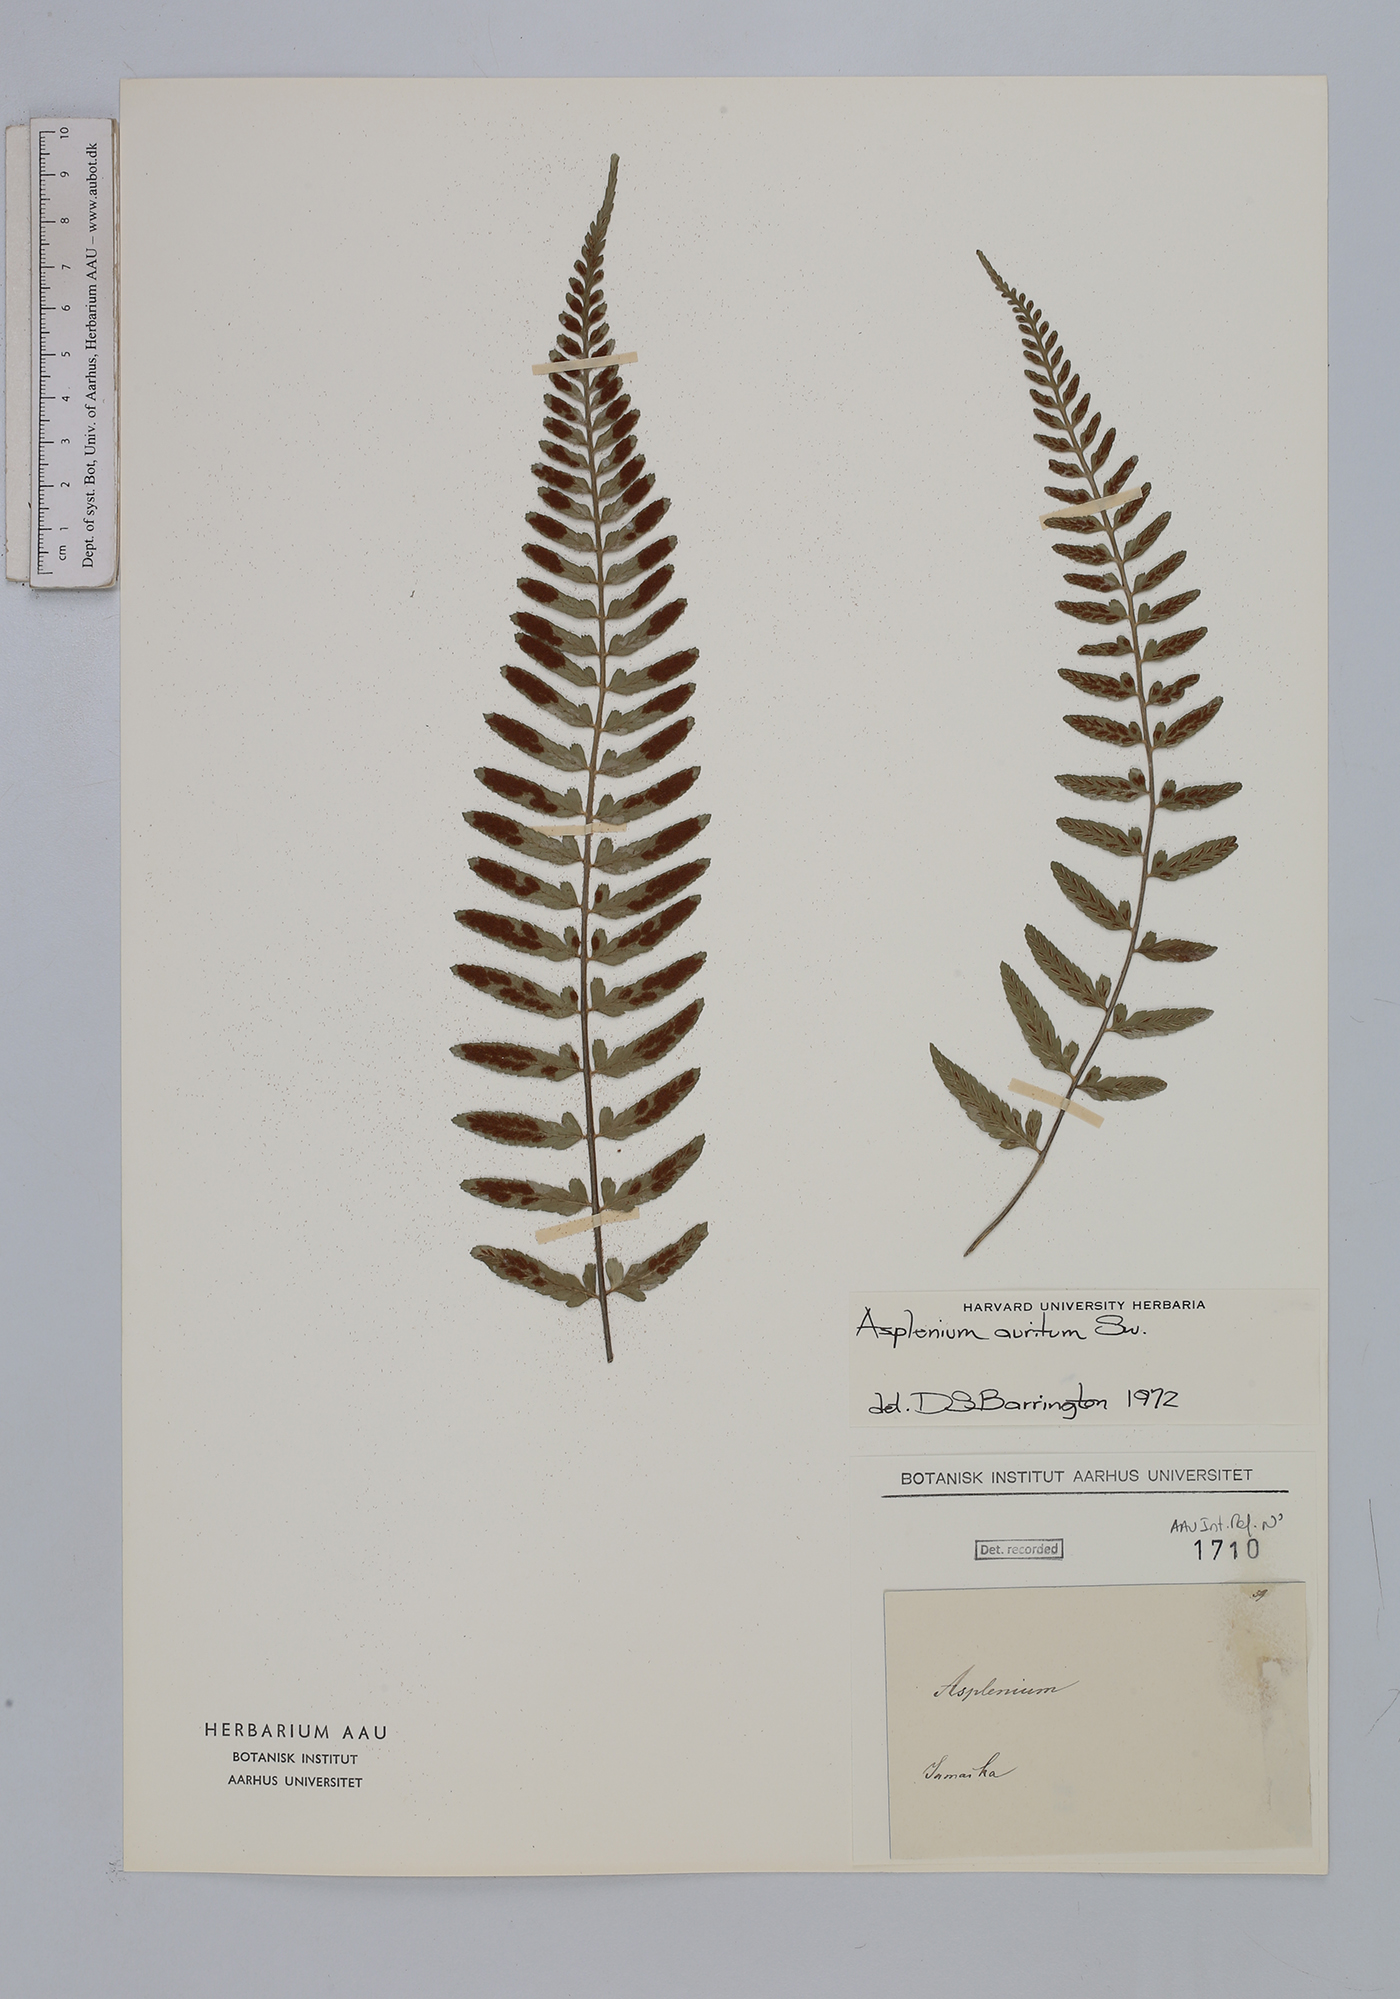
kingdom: Plantae
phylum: Tracheophyta
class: Polypodiopsida
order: Polypodiales
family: Aspleniaceae
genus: Asplenium
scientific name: Asplenium auritum
